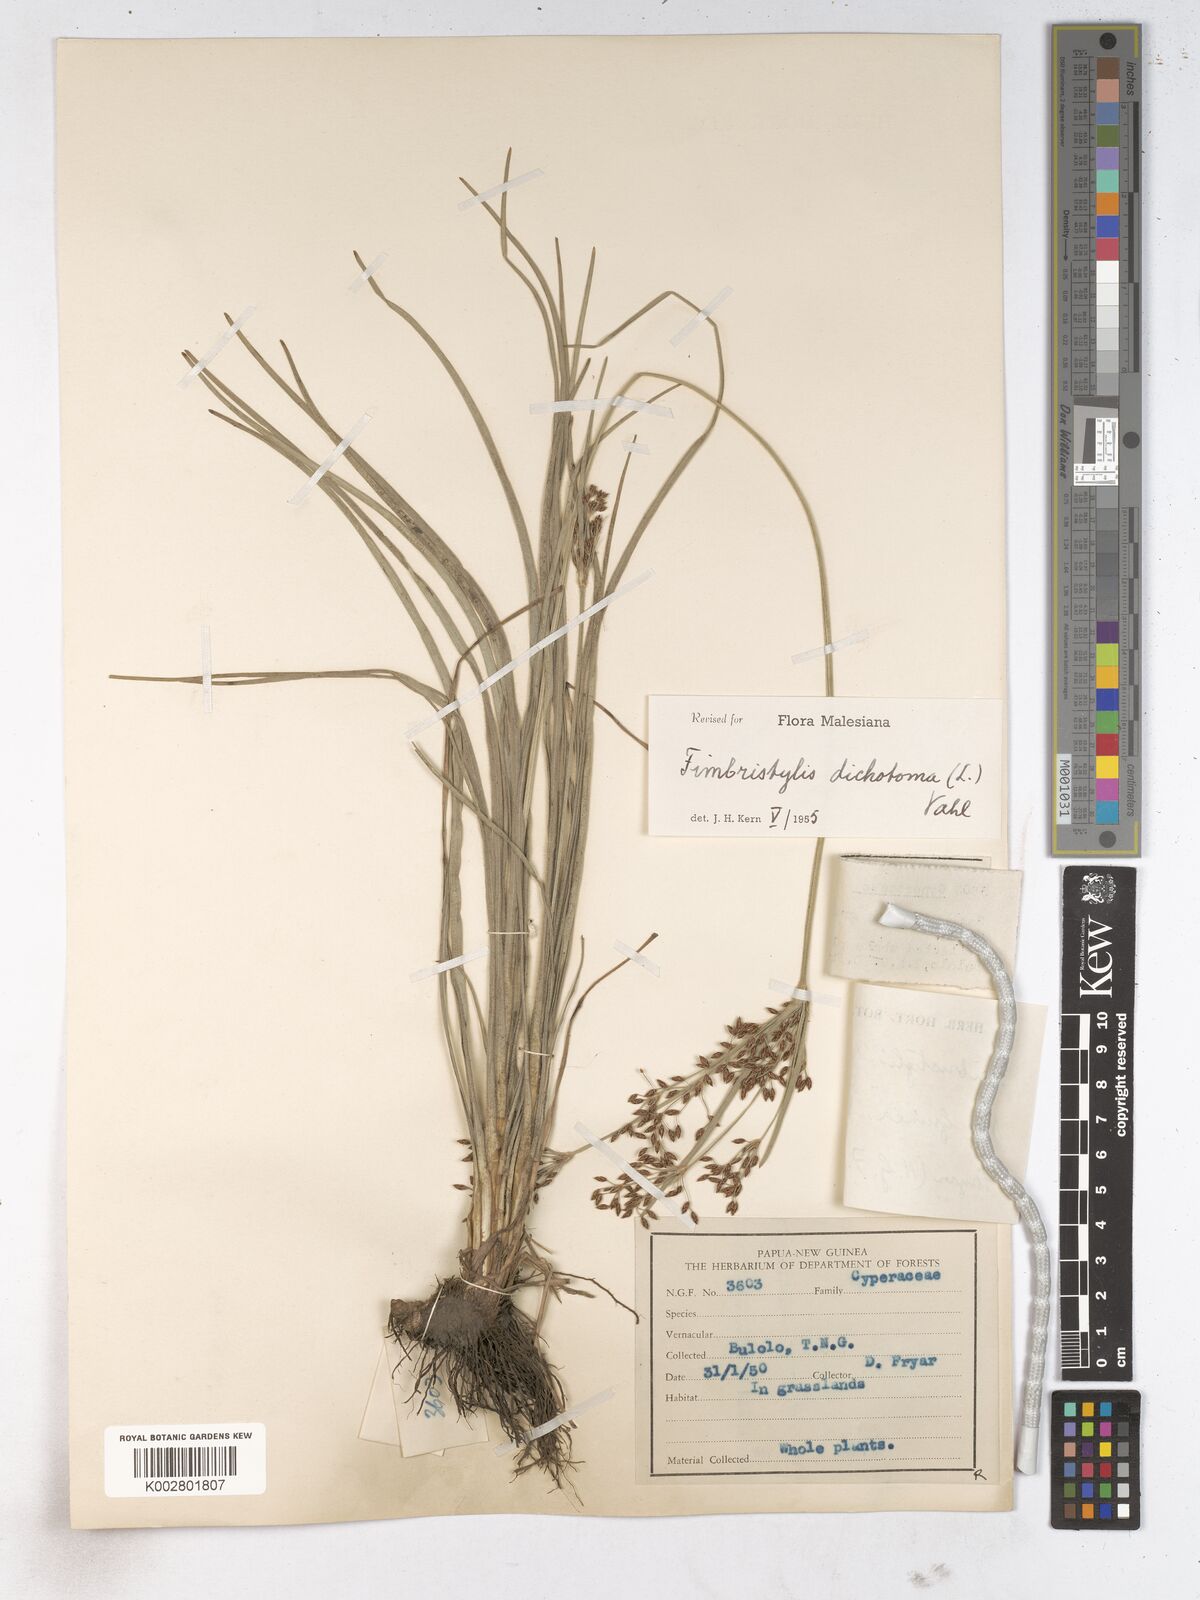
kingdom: Plantae
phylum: Tracheophyta
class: Liliopsida
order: Poales
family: Cyperaceae
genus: Fimbristylis
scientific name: Fimbristylis dichotoma
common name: Forked fimbry
